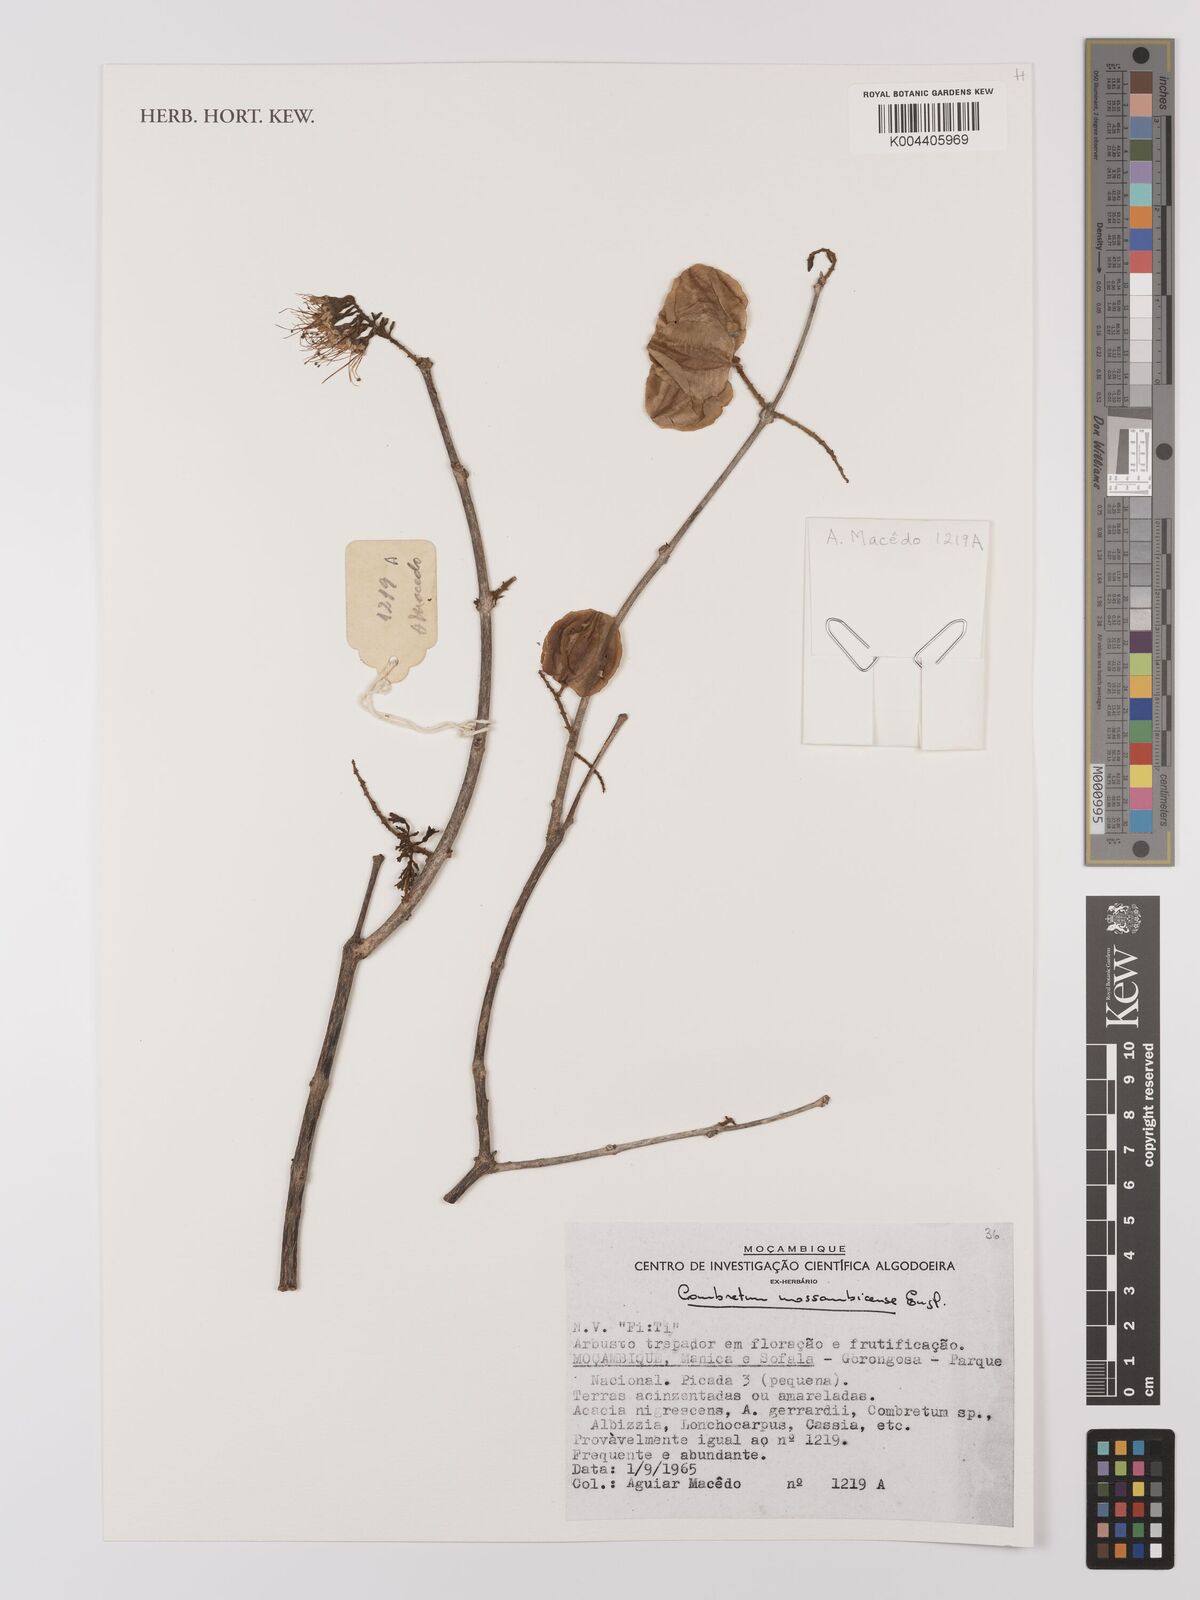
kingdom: Plantae
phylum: Tracheophyta
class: Magnoliopsida
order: Myrtales
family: Combretaceae
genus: Combretum
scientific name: Combretum mossambicense
